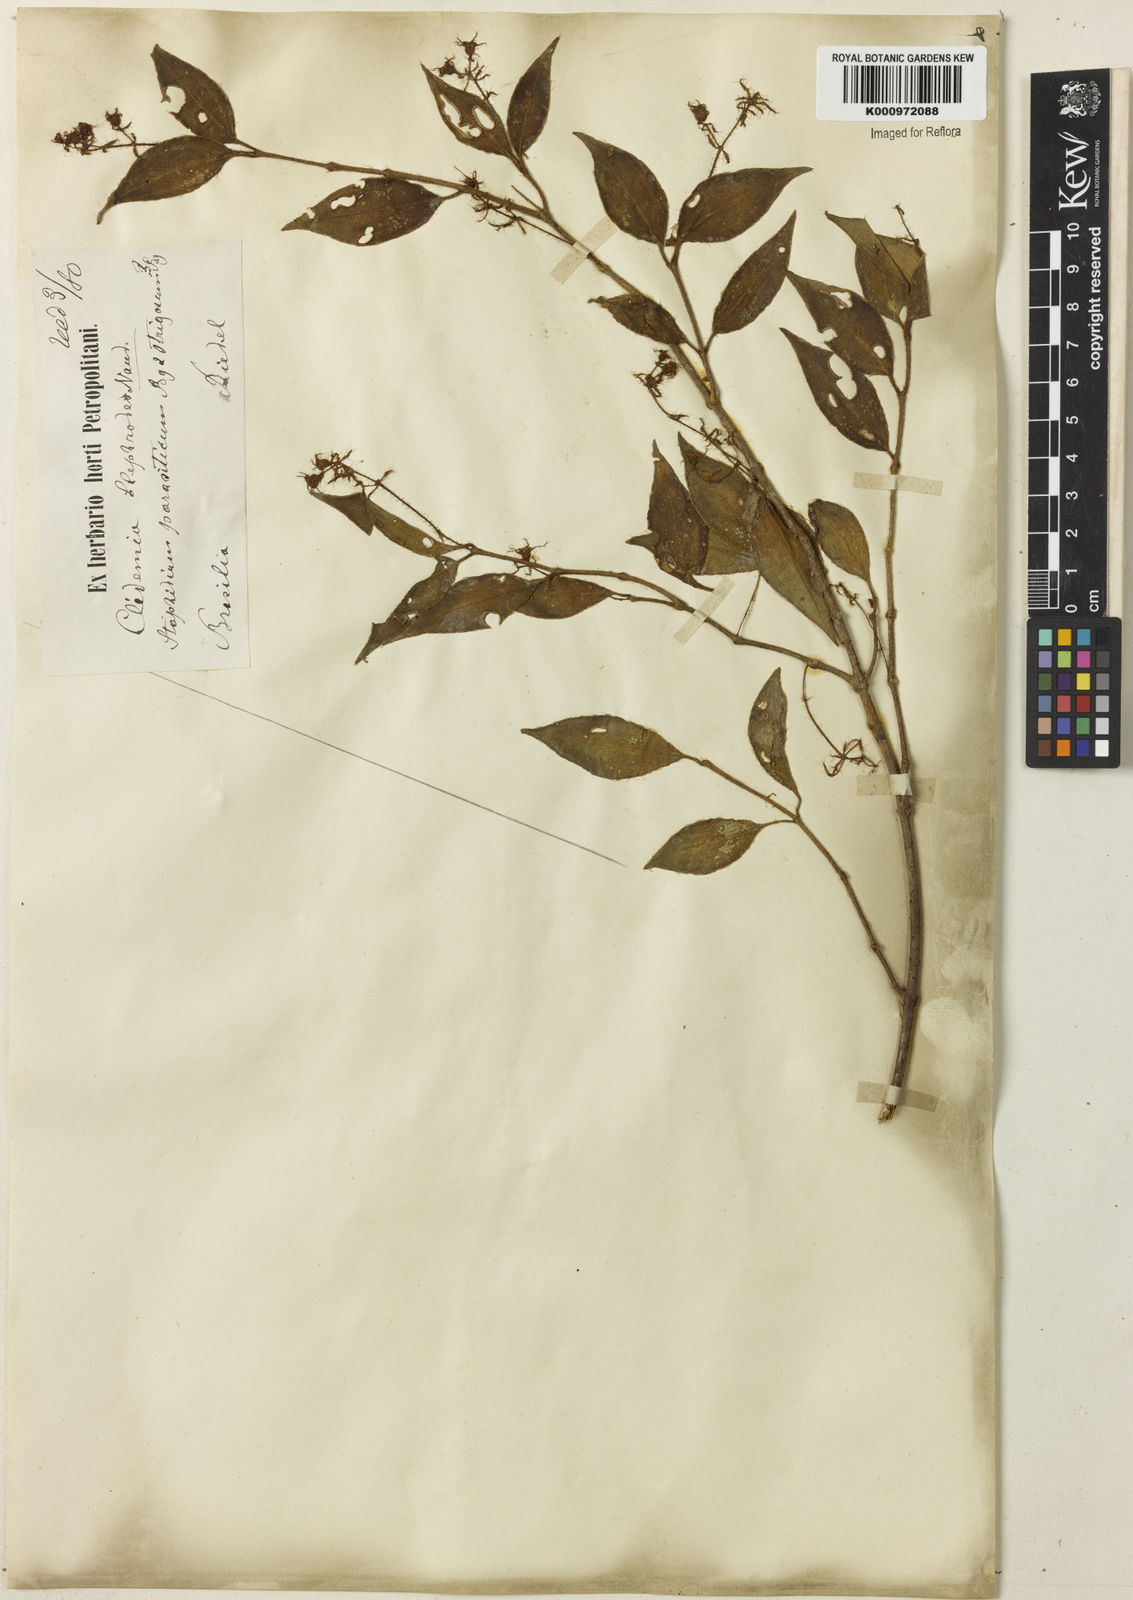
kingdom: Plantae
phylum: Tracheophyta
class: Magnoliopsida
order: Myrtales
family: Melastomataceae
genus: Miconia
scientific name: Miconia
